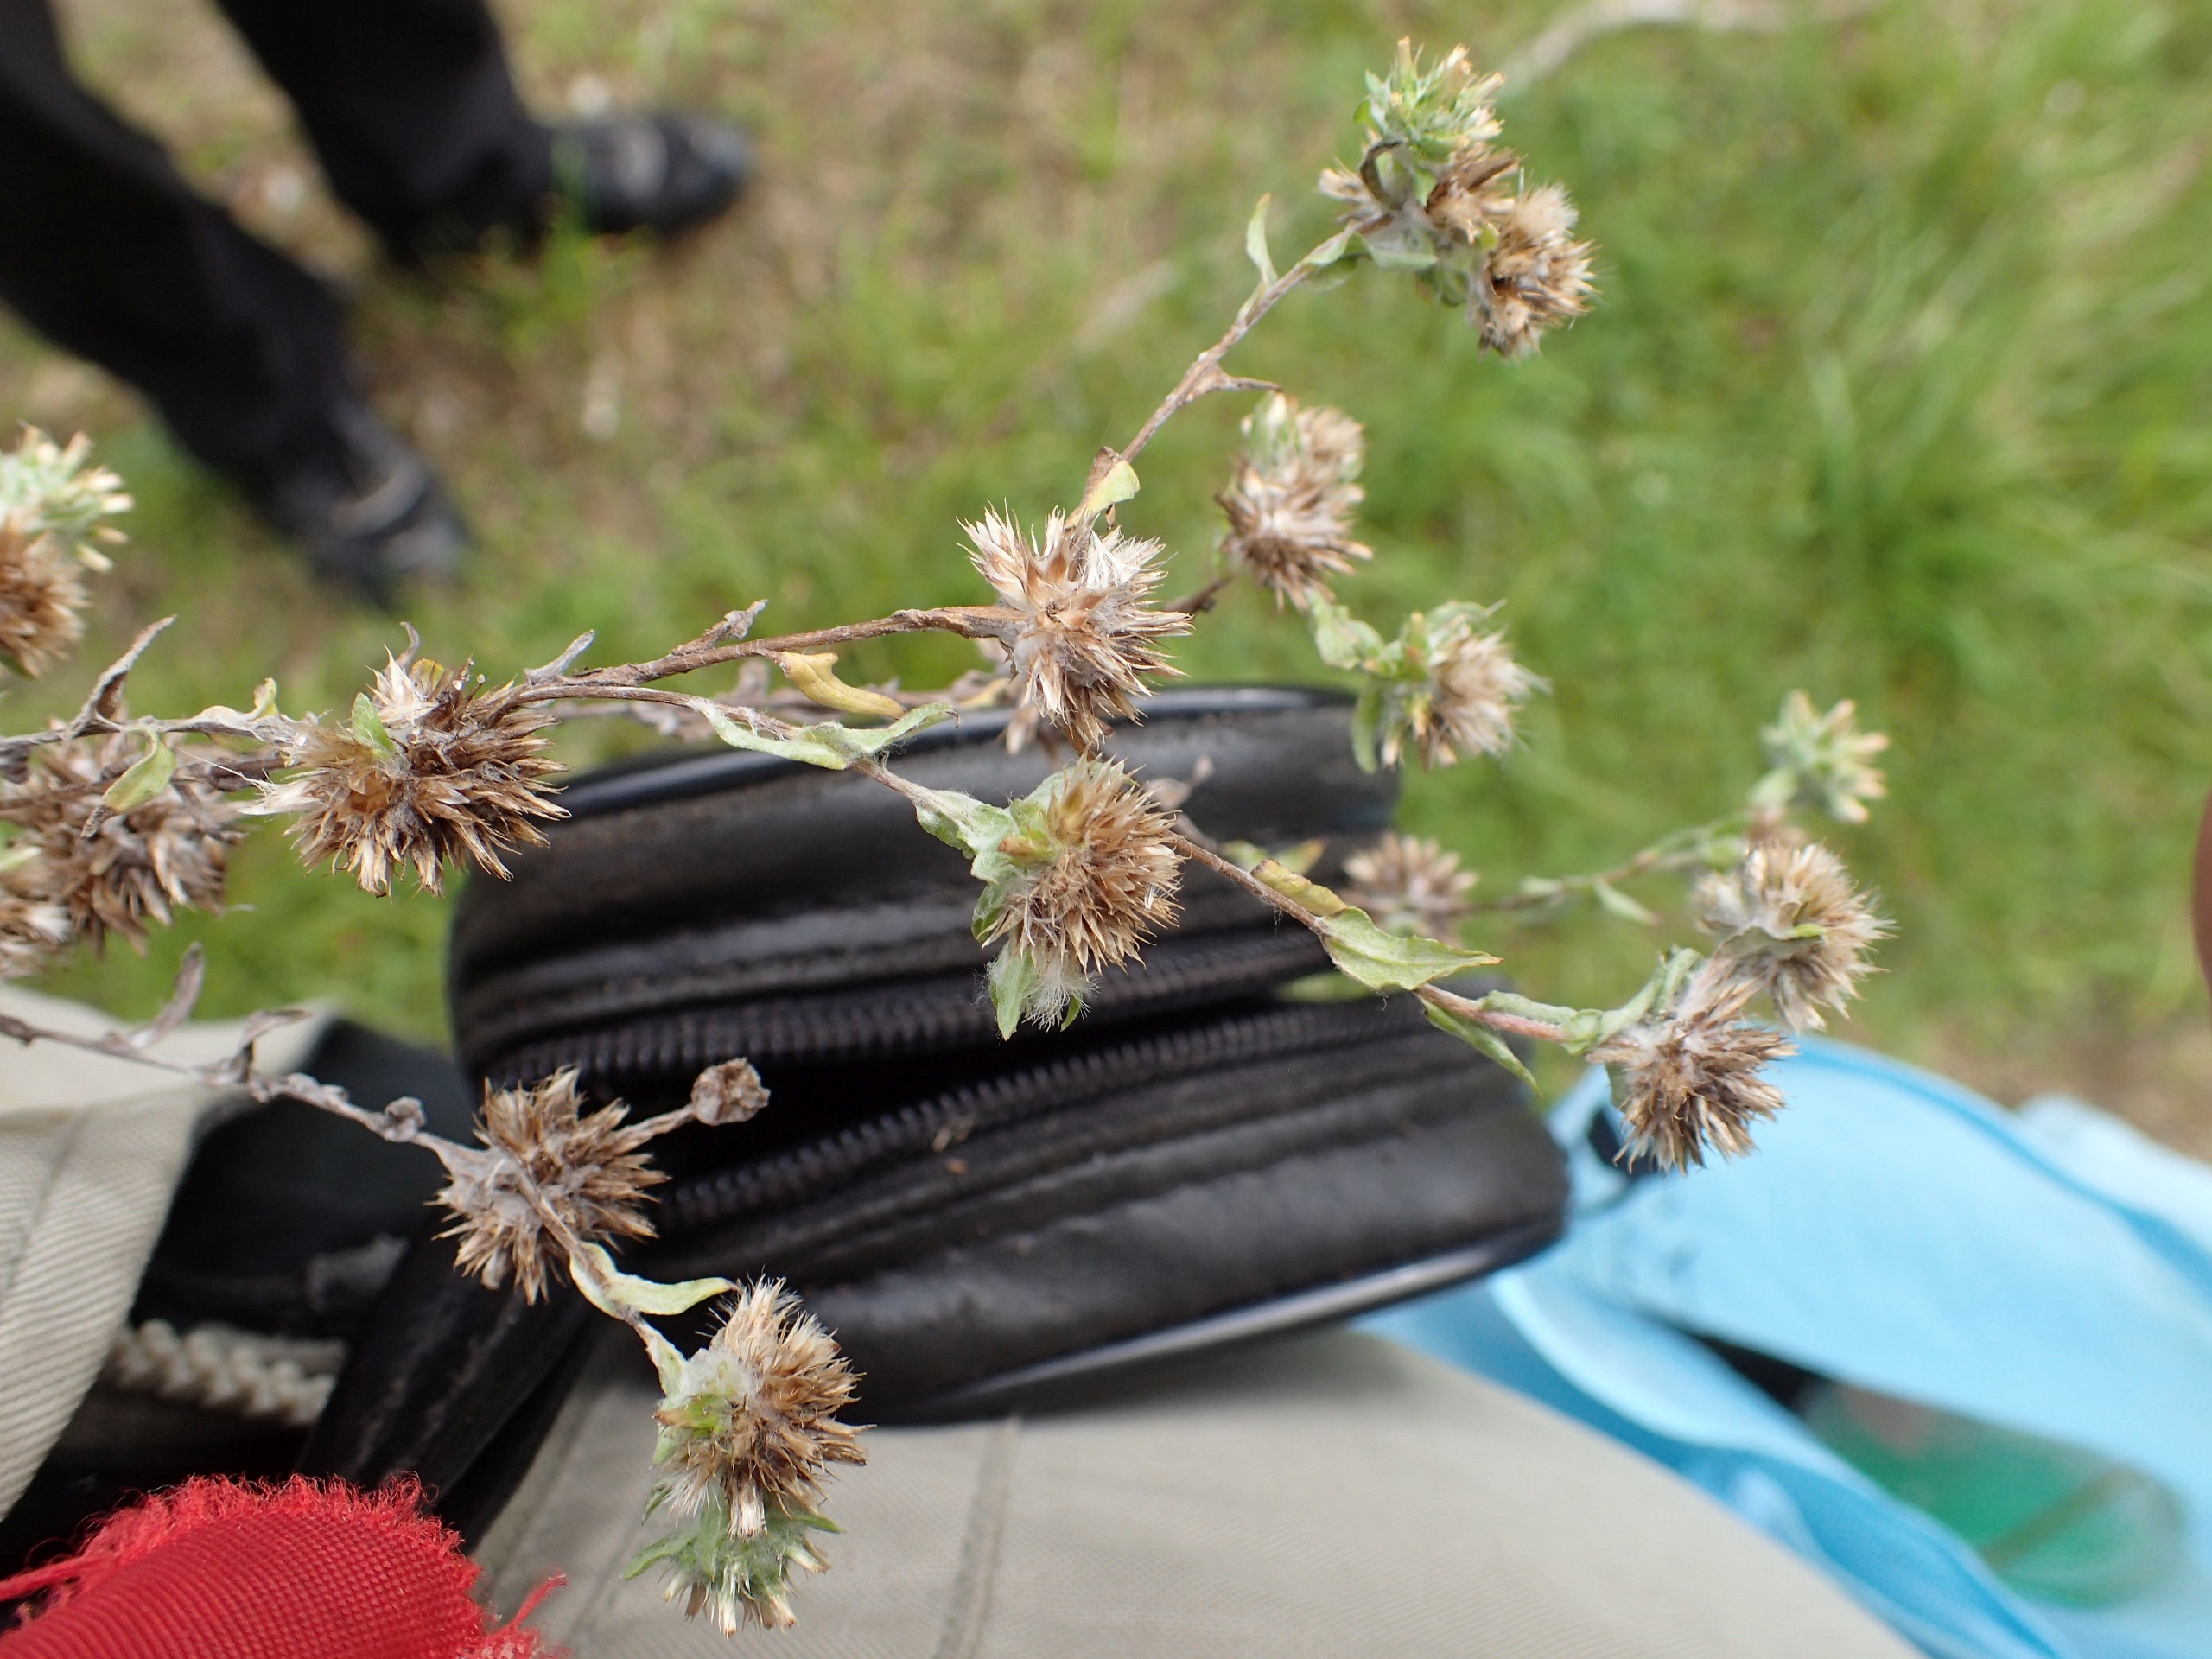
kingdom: Plantae
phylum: Tracheophyta
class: Magnoliopsida
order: Asterales
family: Asteraceae
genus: Filago
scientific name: Filago germanica
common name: Kugle-museurt
